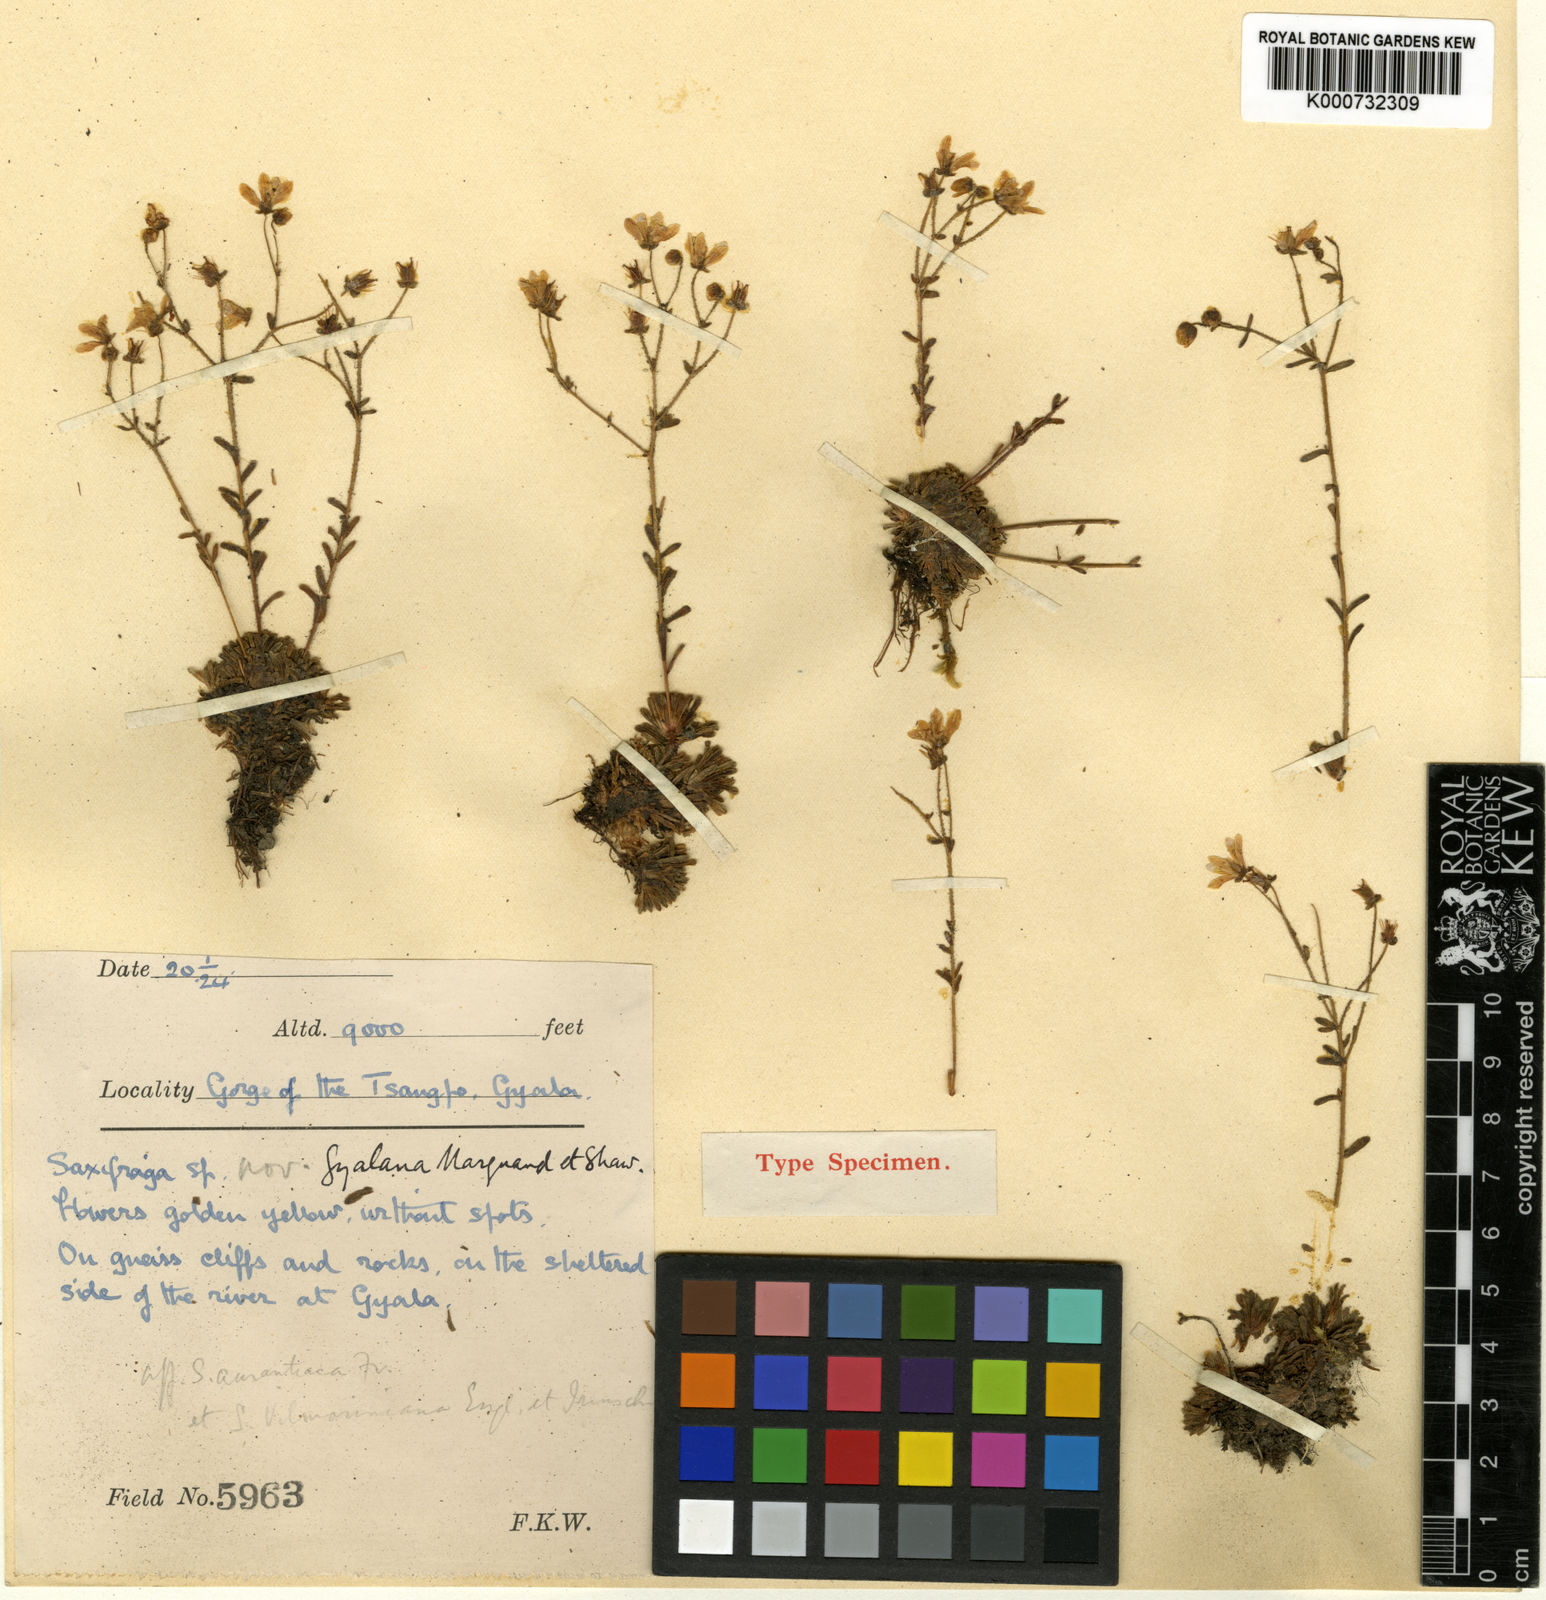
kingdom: Plantae
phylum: Tracheophyta
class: Magnoliopsida
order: Saxifragales
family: Saxifragaceae
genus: Saxifraga
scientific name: Saxifraga gyalana
